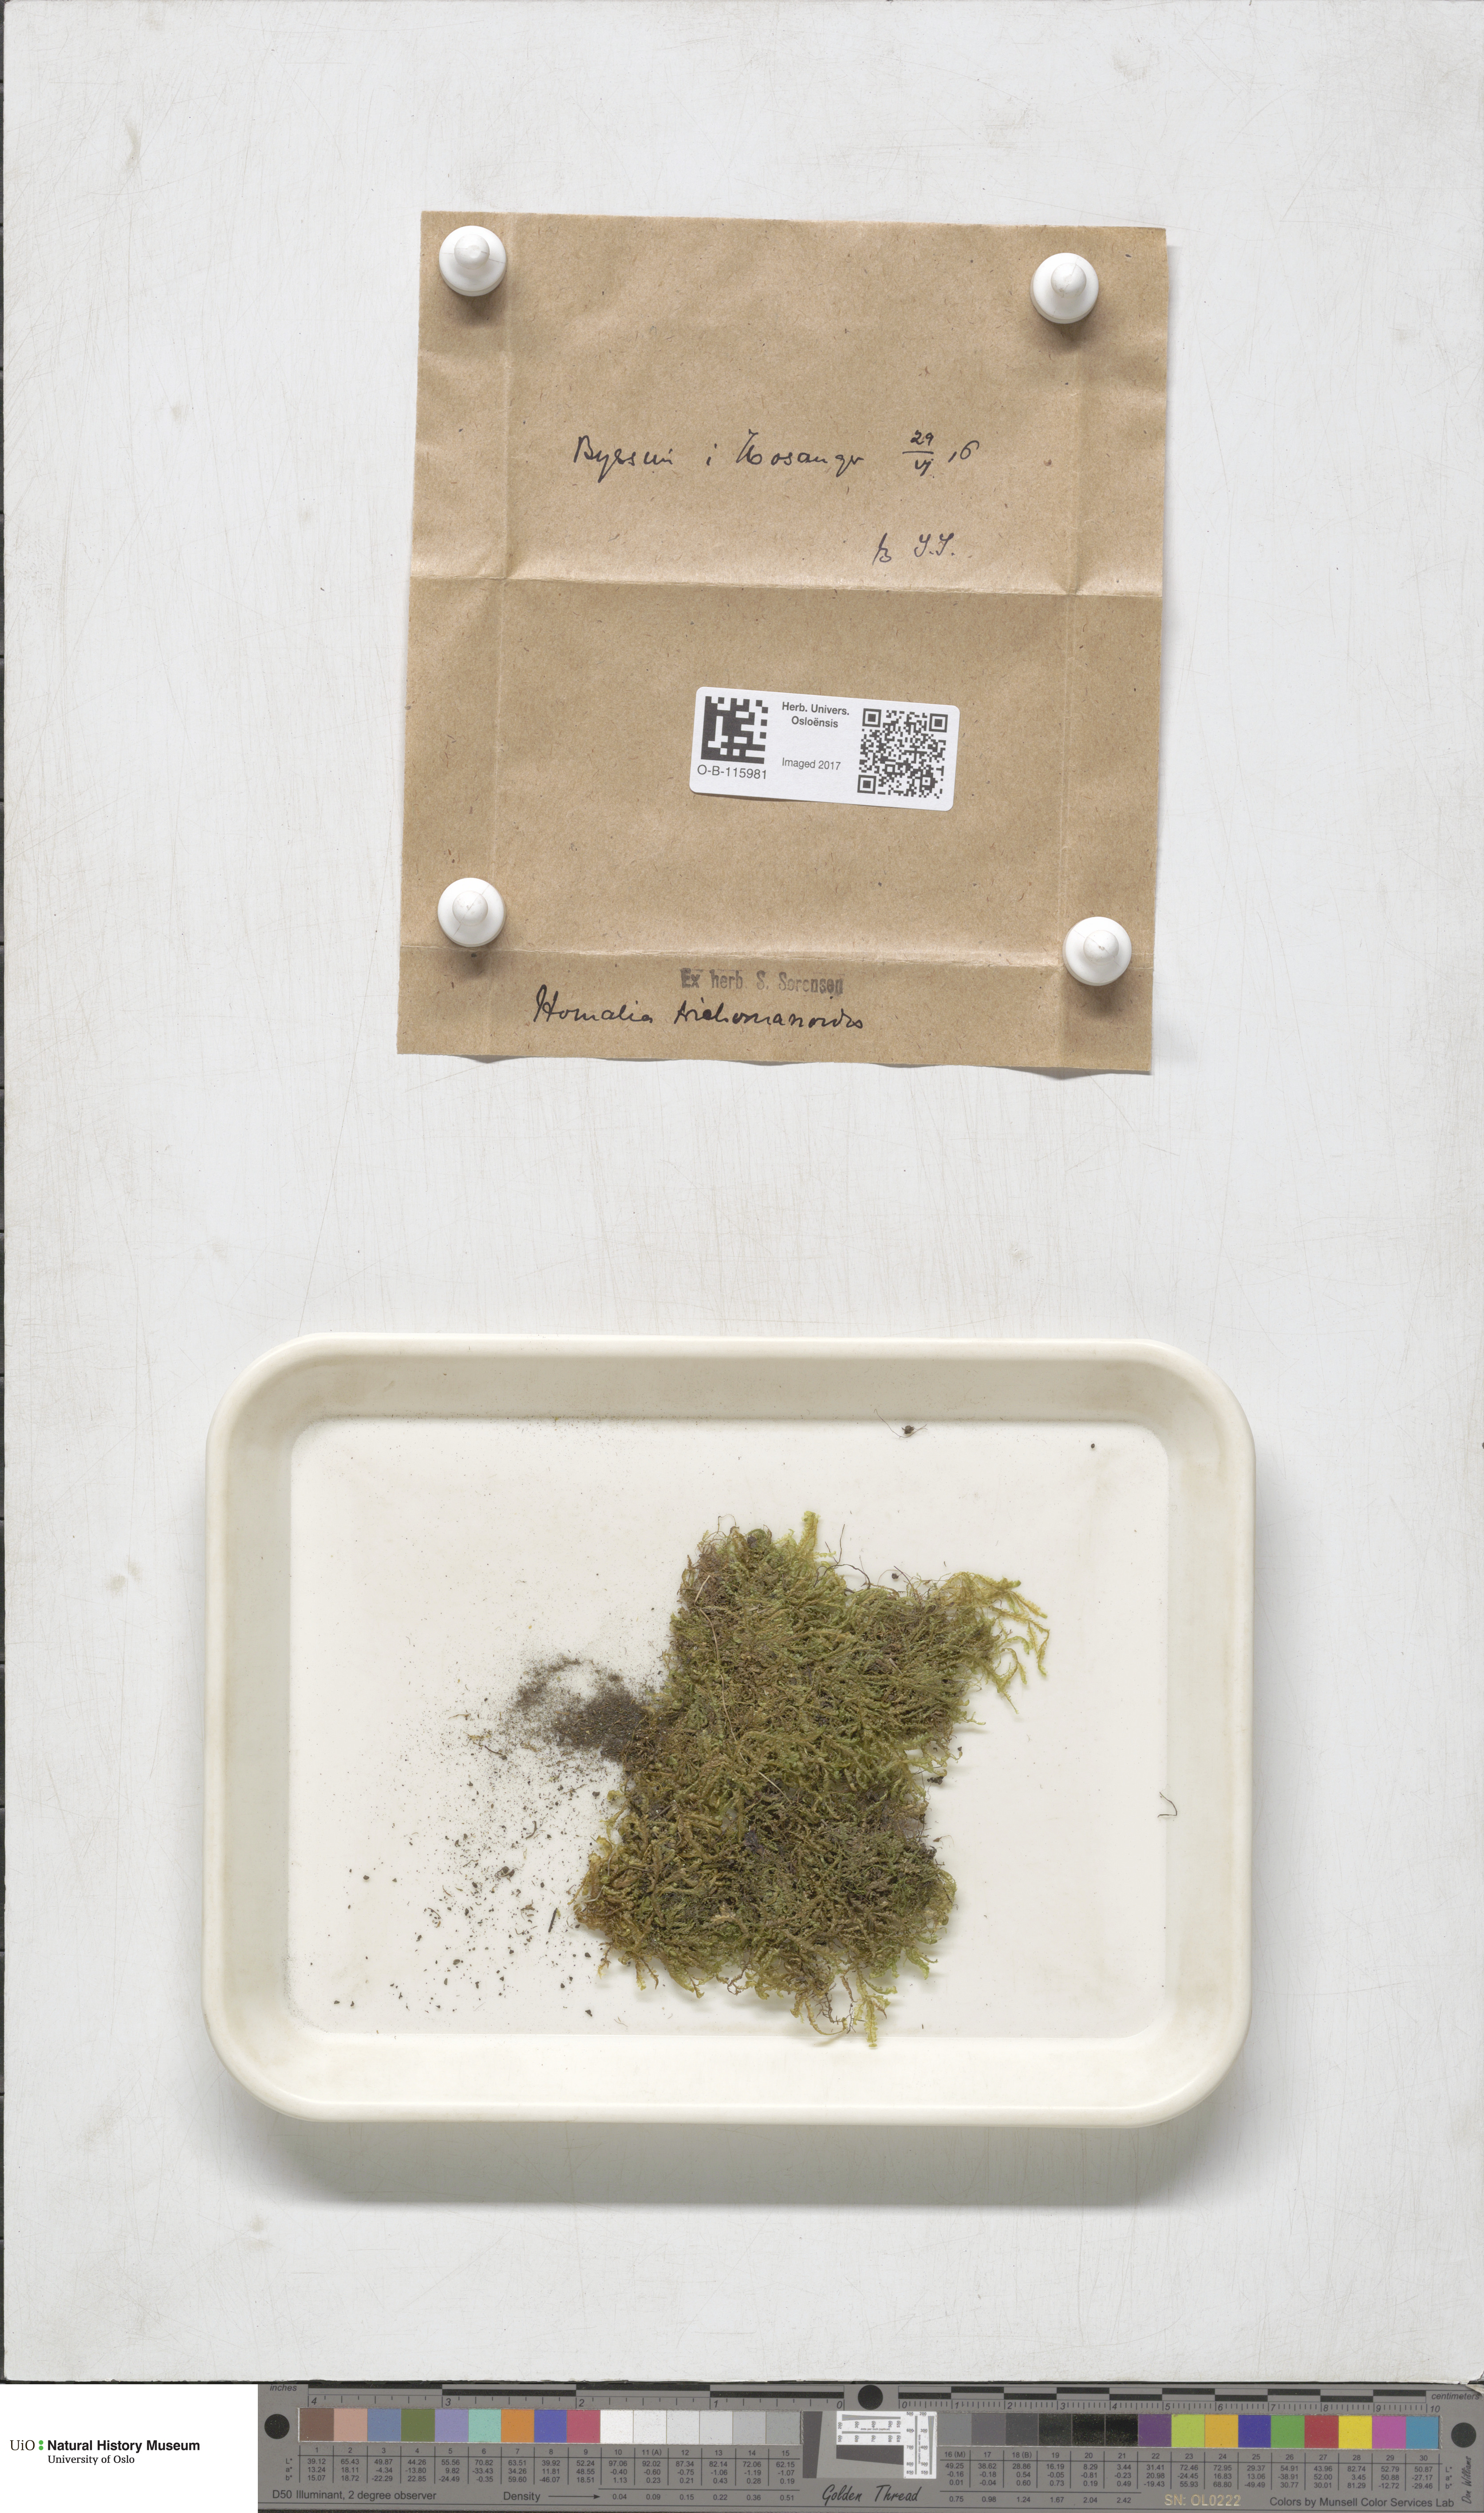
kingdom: Plantae
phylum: Bryophyta
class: Bryopsida
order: Hypnales
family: Neckeraceae
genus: Homalia
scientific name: Homalia trichomanoides
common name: Lime homalia moss
